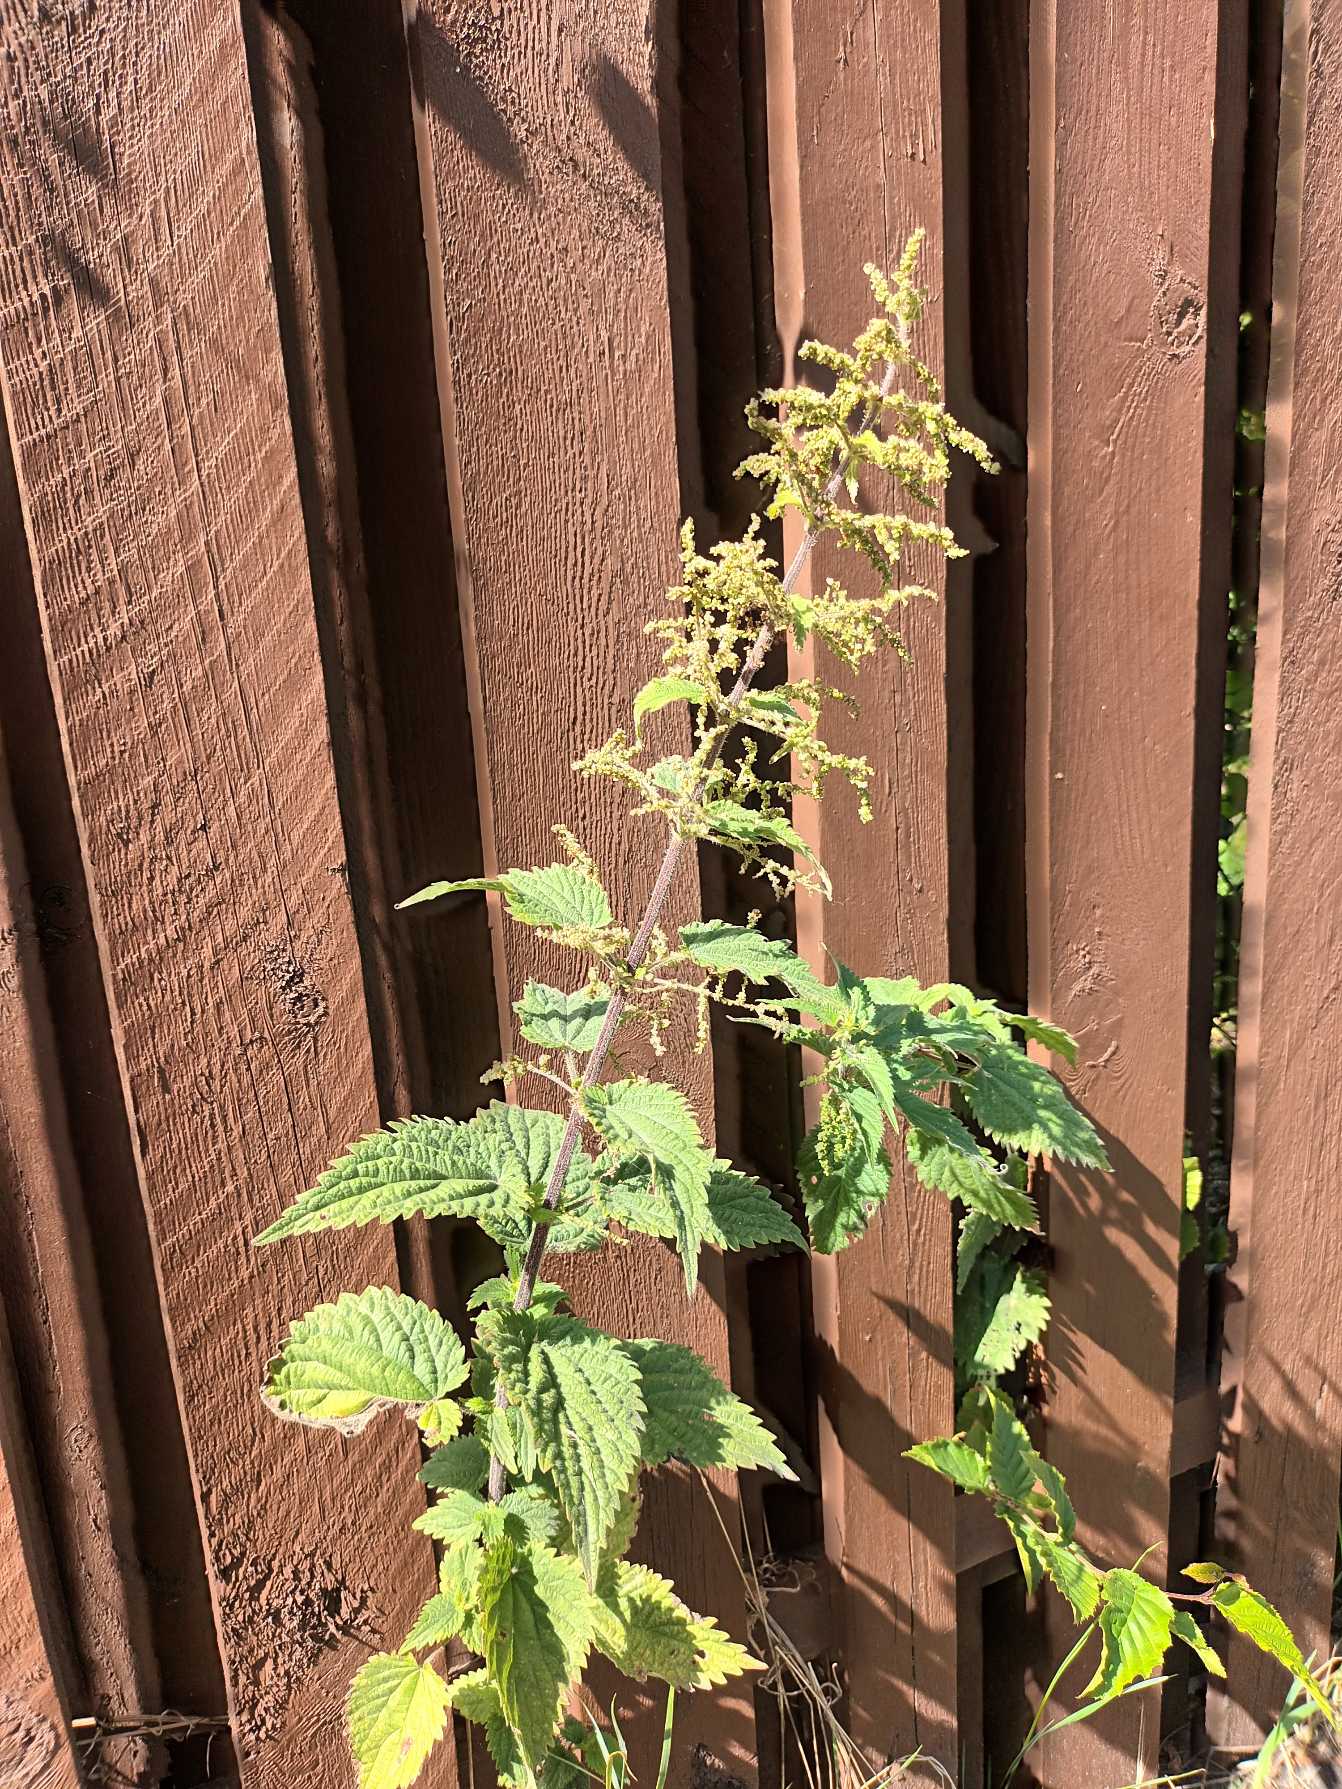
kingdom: Plantae
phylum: Tracheophyta
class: Magnoliopsida
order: Rosales
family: Urticaceae
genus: Urtica
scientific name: Urtica dioica
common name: Stor nælde
